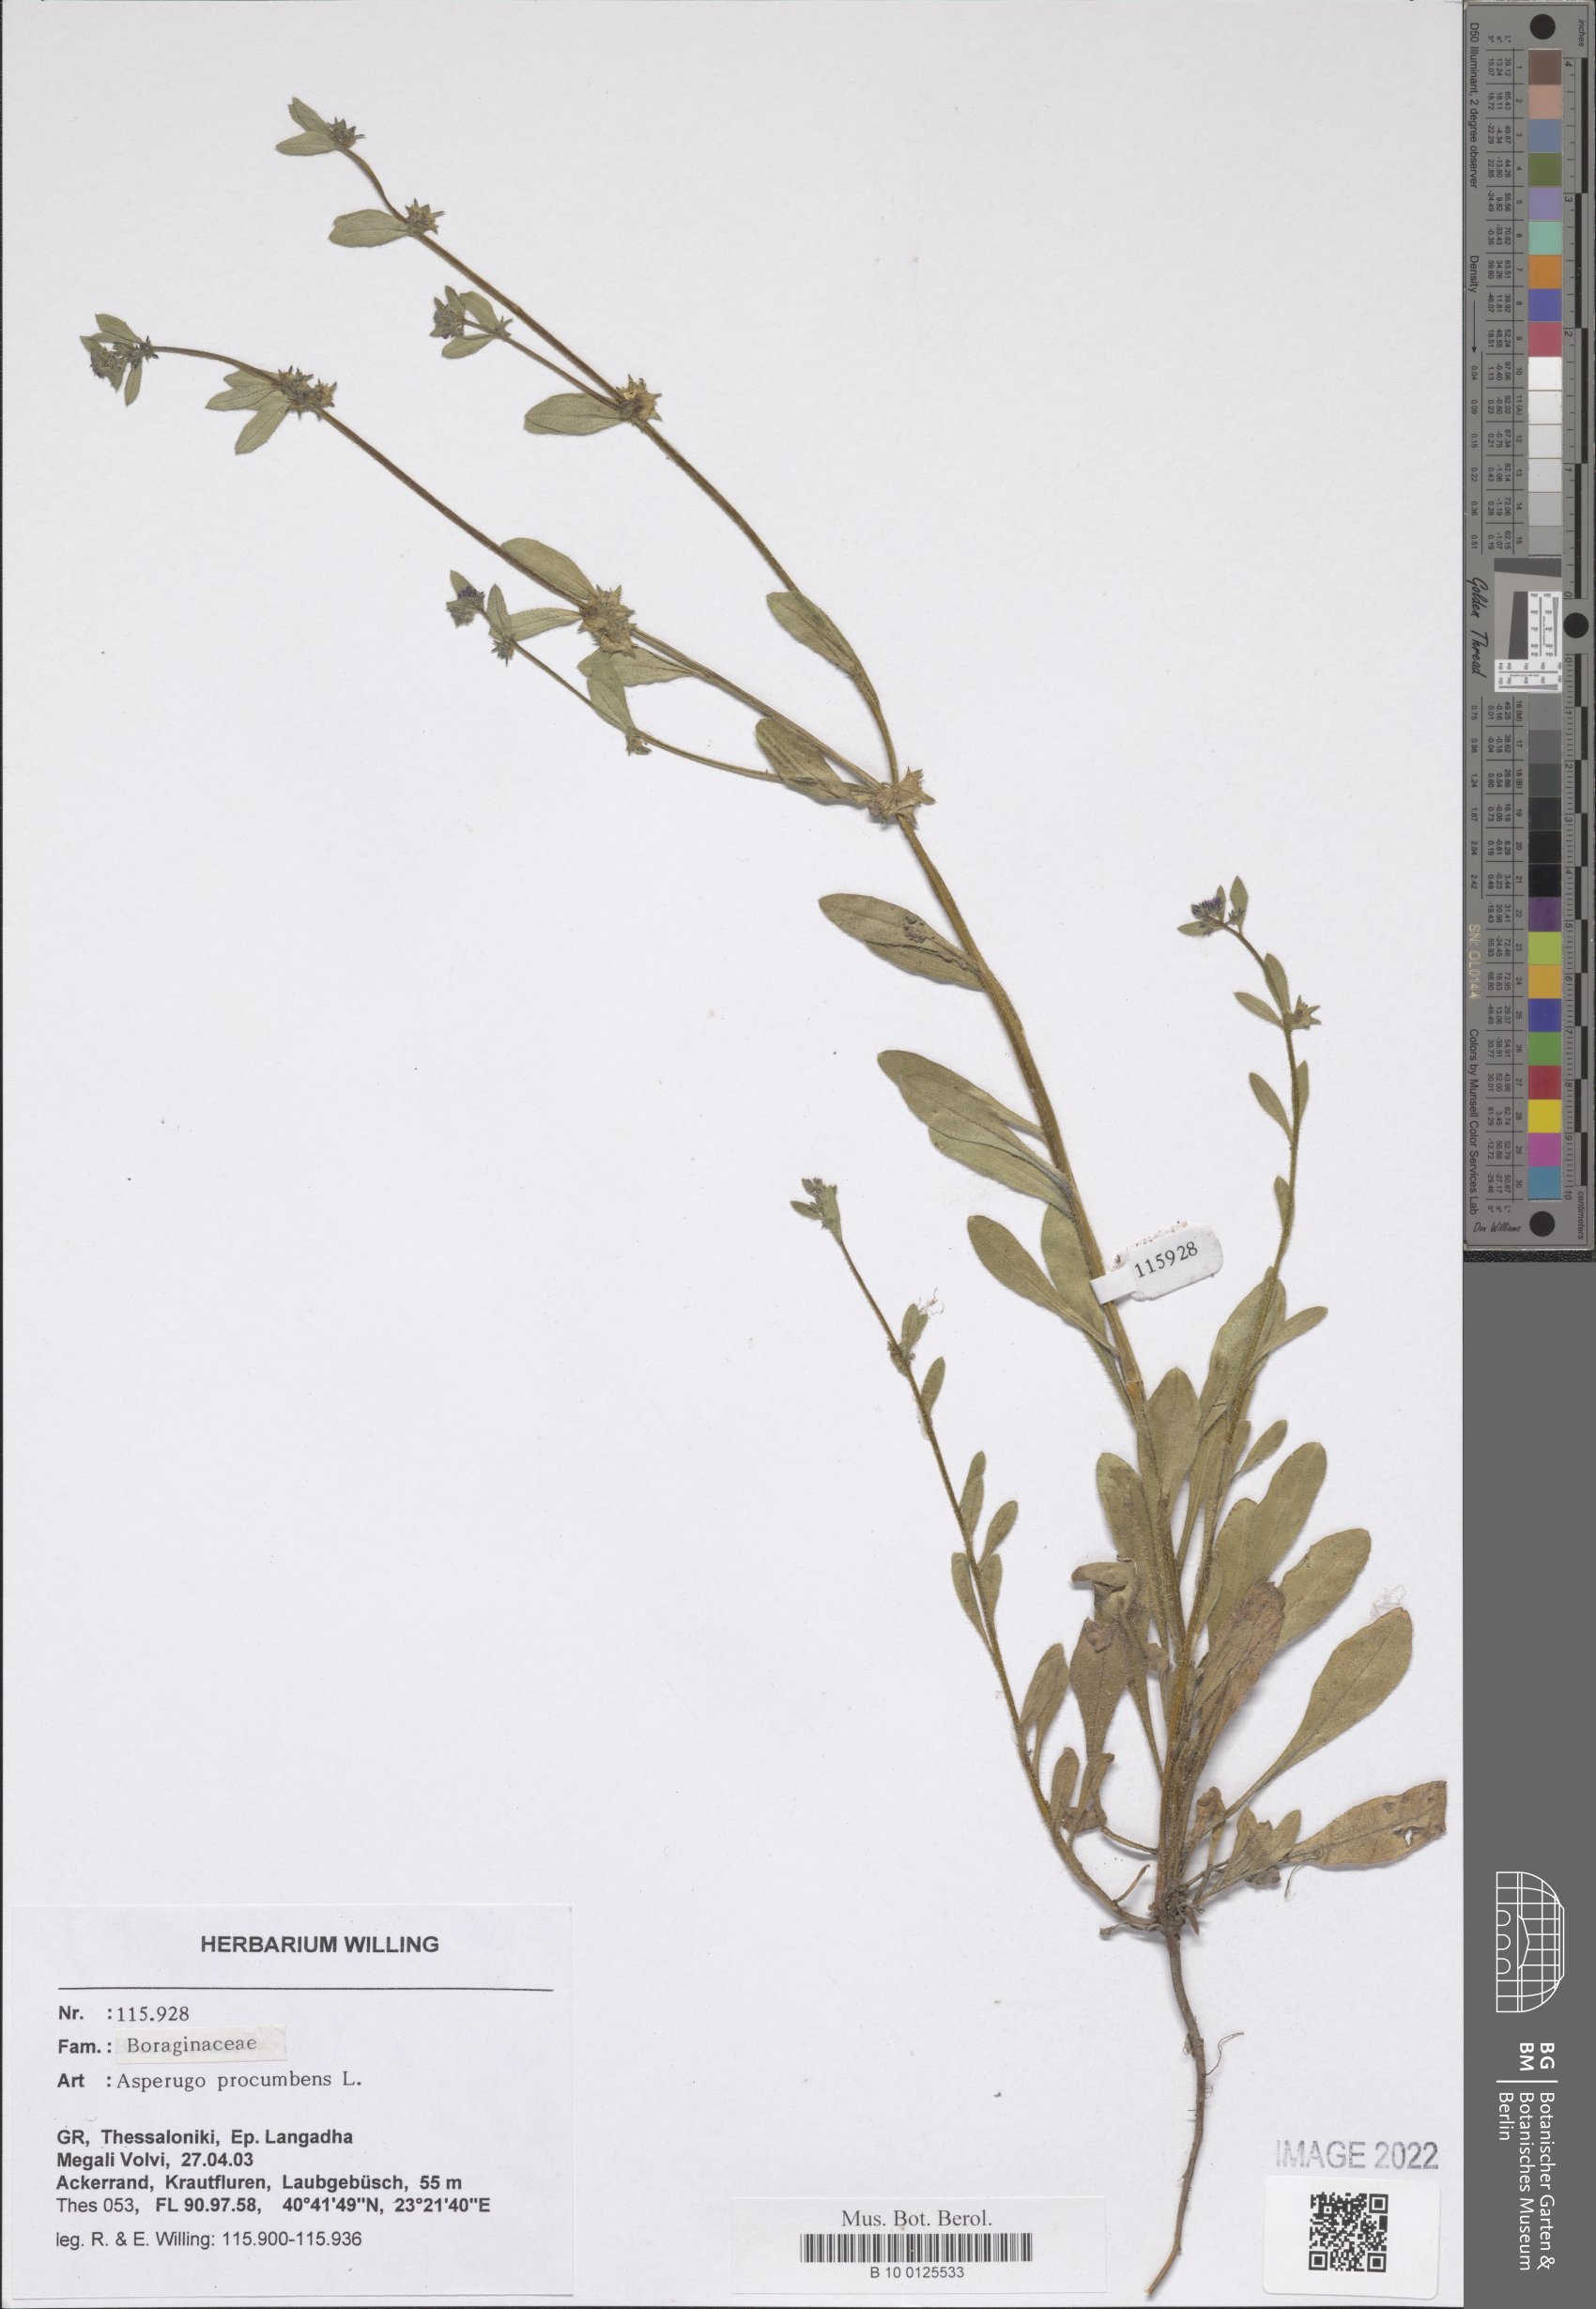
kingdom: Plantae
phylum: Tracheophyta
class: Magnoliopsida
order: Boraginales
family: Boraginaceae
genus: Asperugo
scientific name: Asperugo procumbens
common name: Madwort
